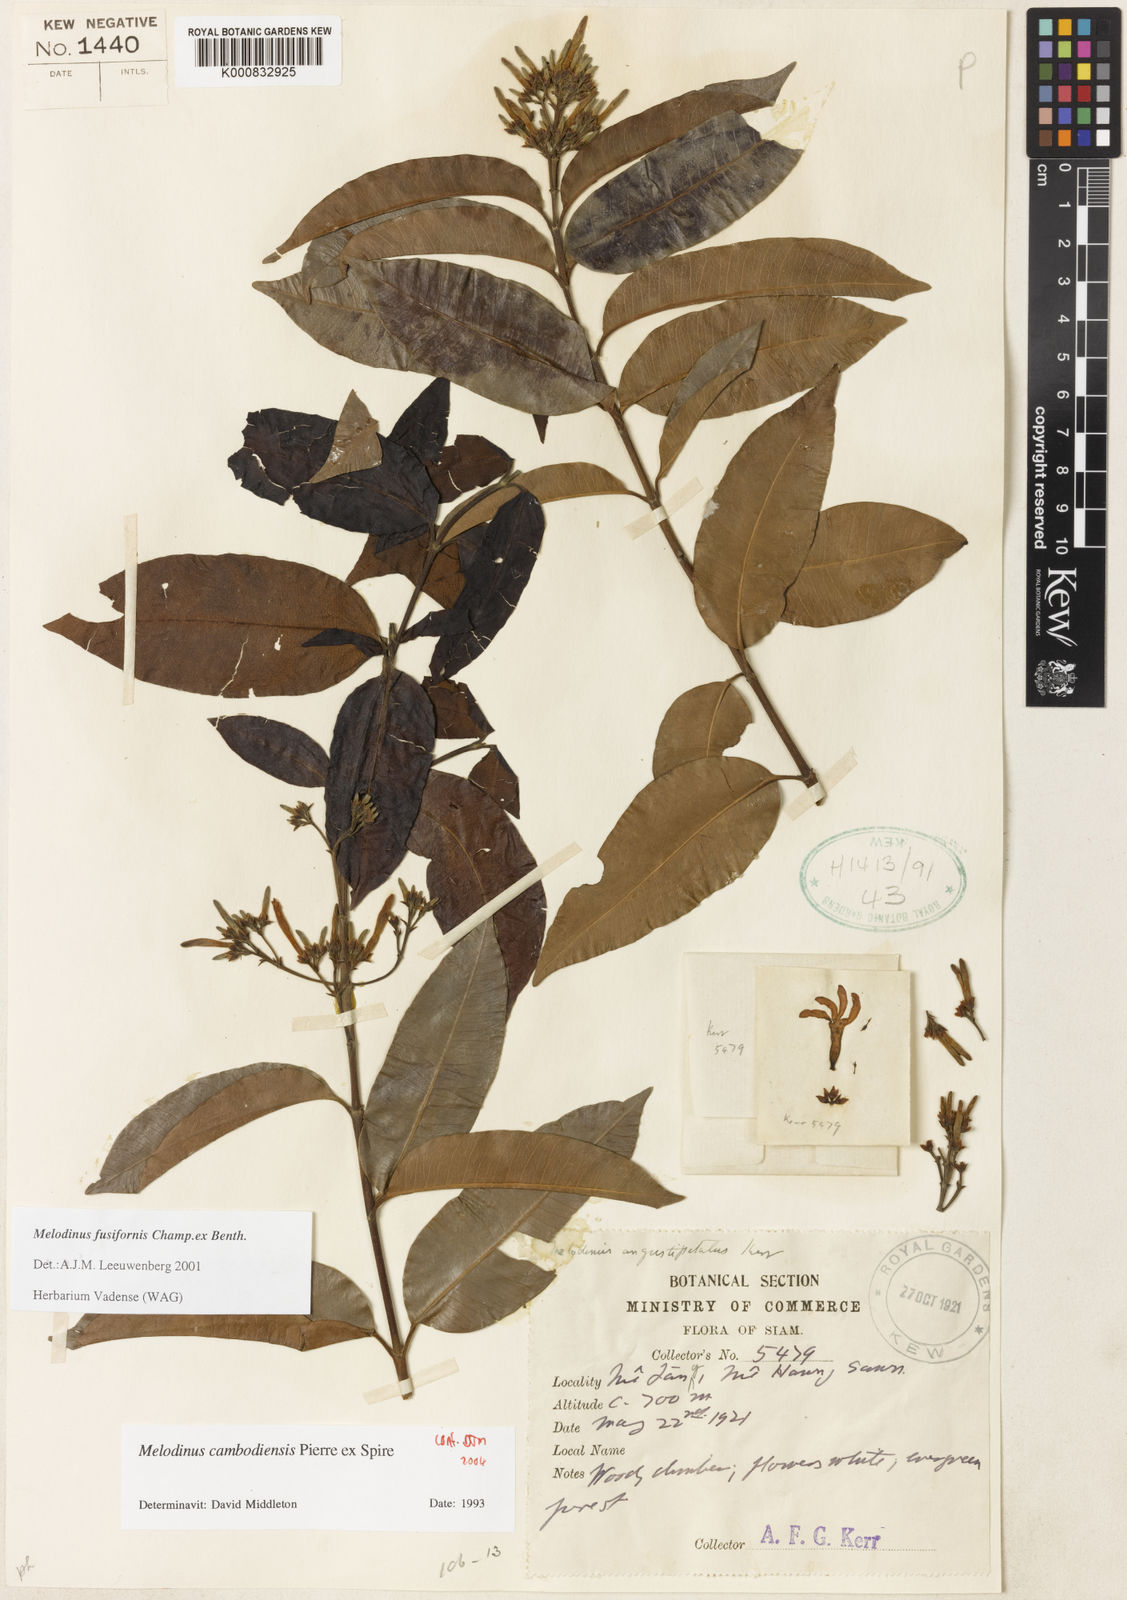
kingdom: Plantae
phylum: Tracheophyta
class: Magnoliopsida
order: Gentianales
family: Apocynaceae
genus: Melodinus
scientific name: Melodinus cambodiensis
